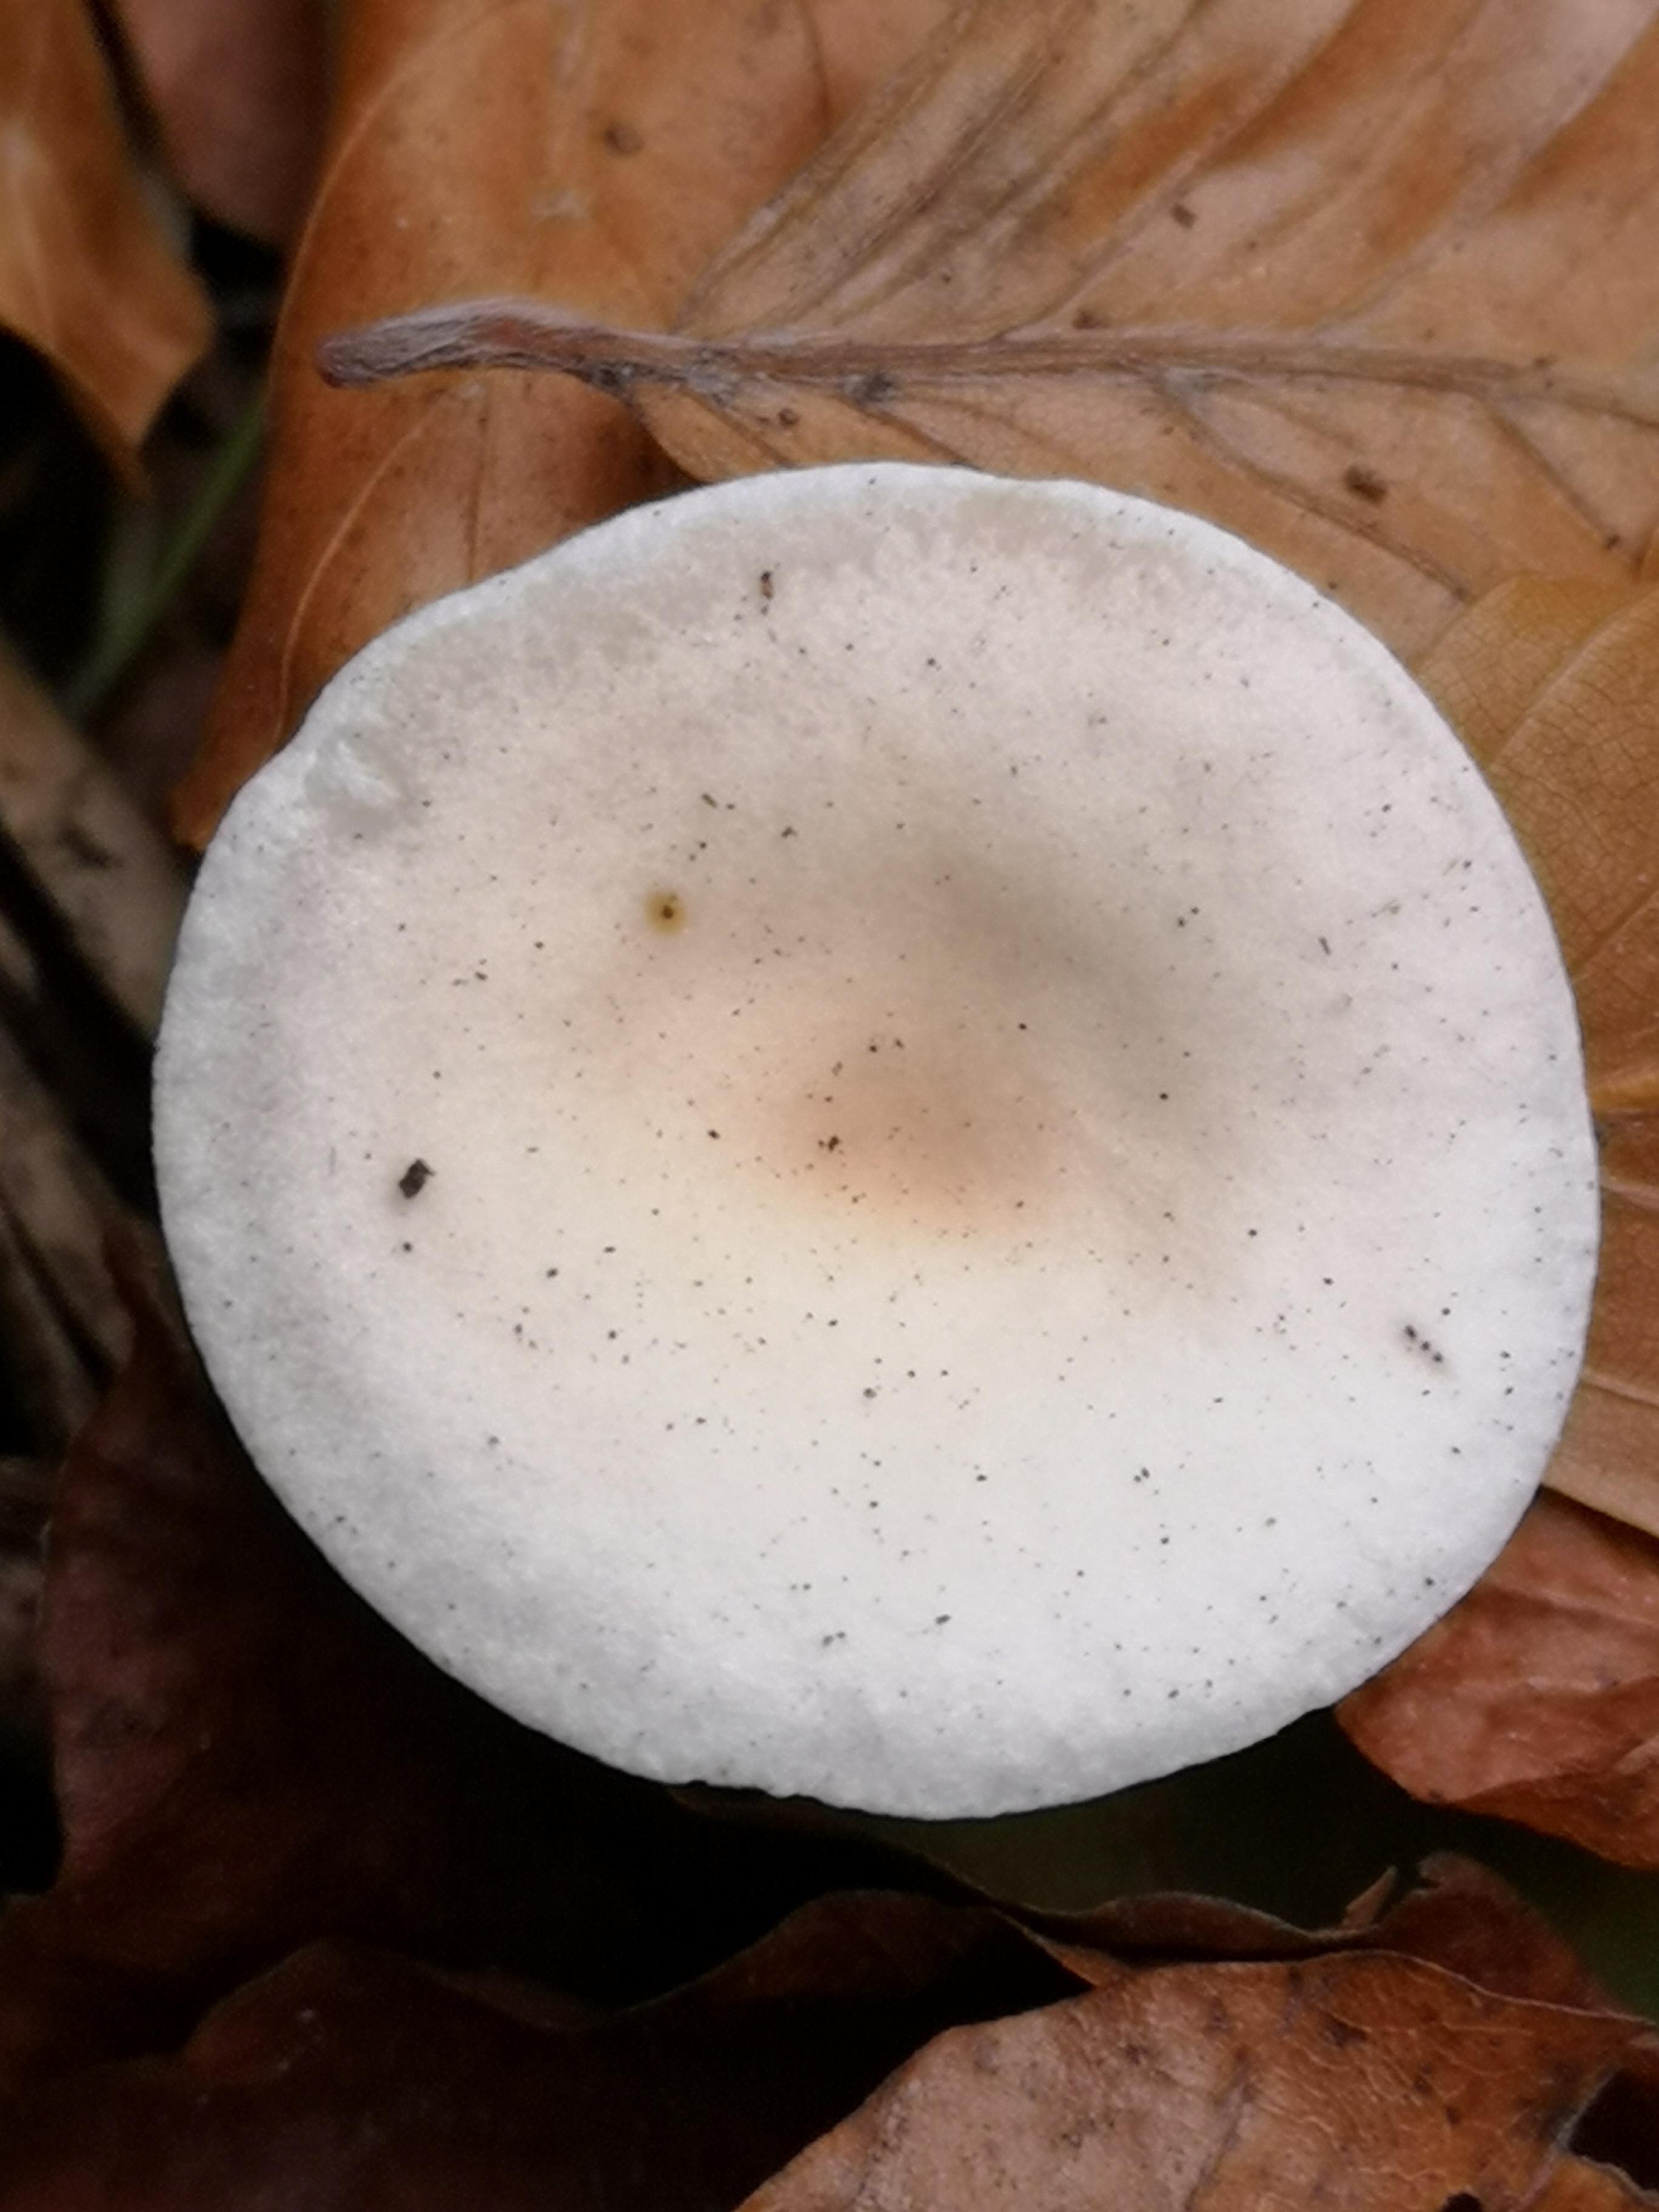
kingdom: Fungi
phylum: Basidiomycota
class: Agaricomycetes
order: Agaricales
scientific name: Agaricales
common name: champignonordenen
